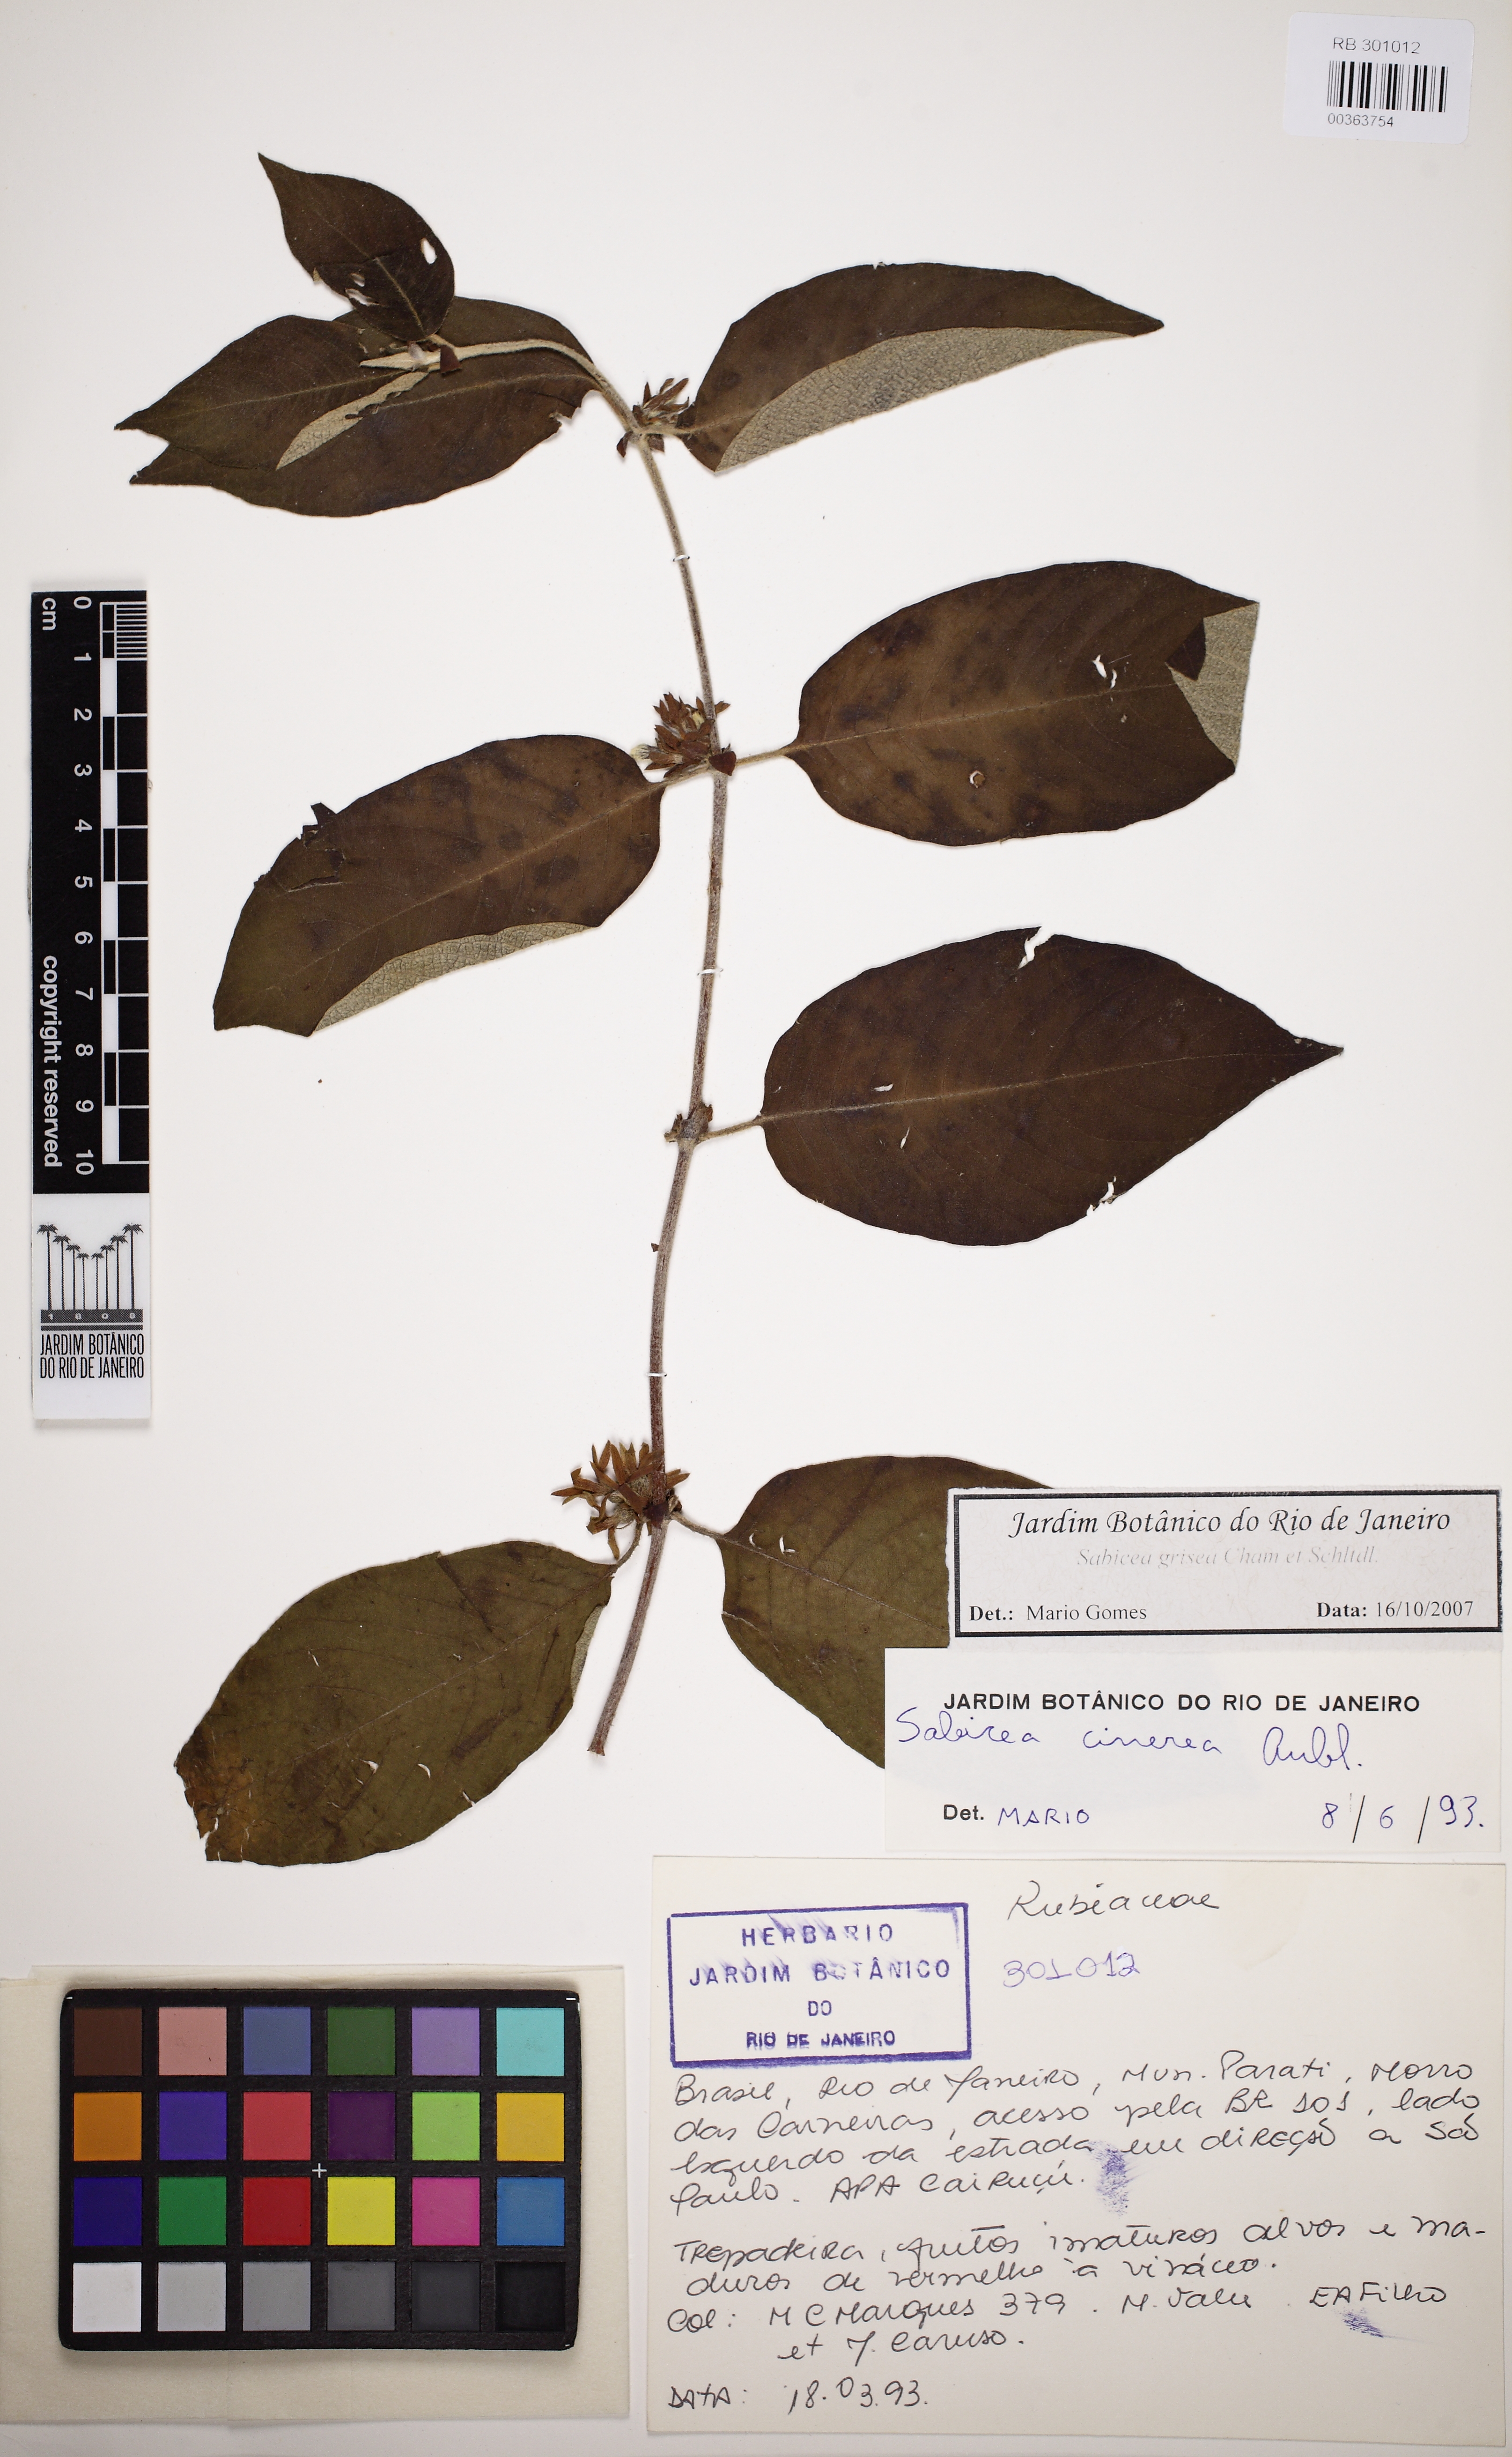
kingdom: Plantae
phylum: Tracheophyta
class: Magnoliopsida
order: Gentianales
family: Rubiaceae
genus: Sabicea
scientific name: Sabicea grisea
